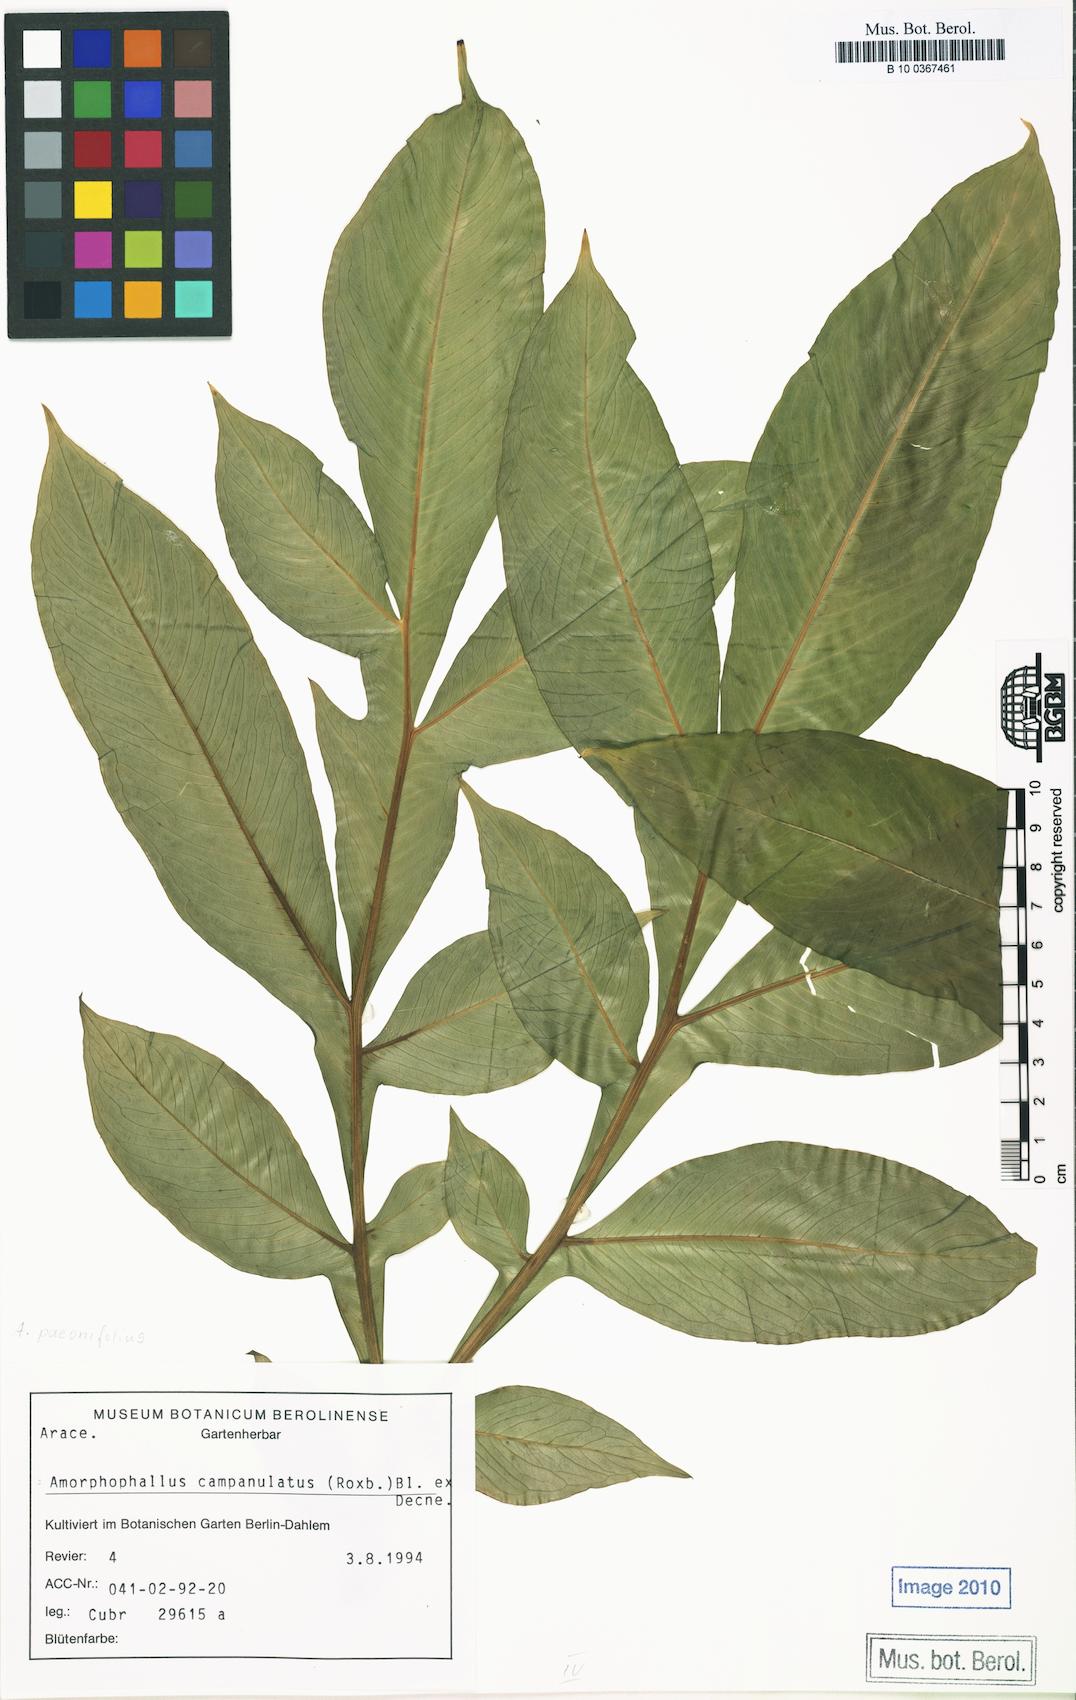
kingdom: Plantae
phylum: Tracheophyta
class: Liliopsida
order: Alismatales
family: Araceae
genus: Amorphophallus
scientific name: Amorphophallus paeoniifolius
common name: Telinga-potato
